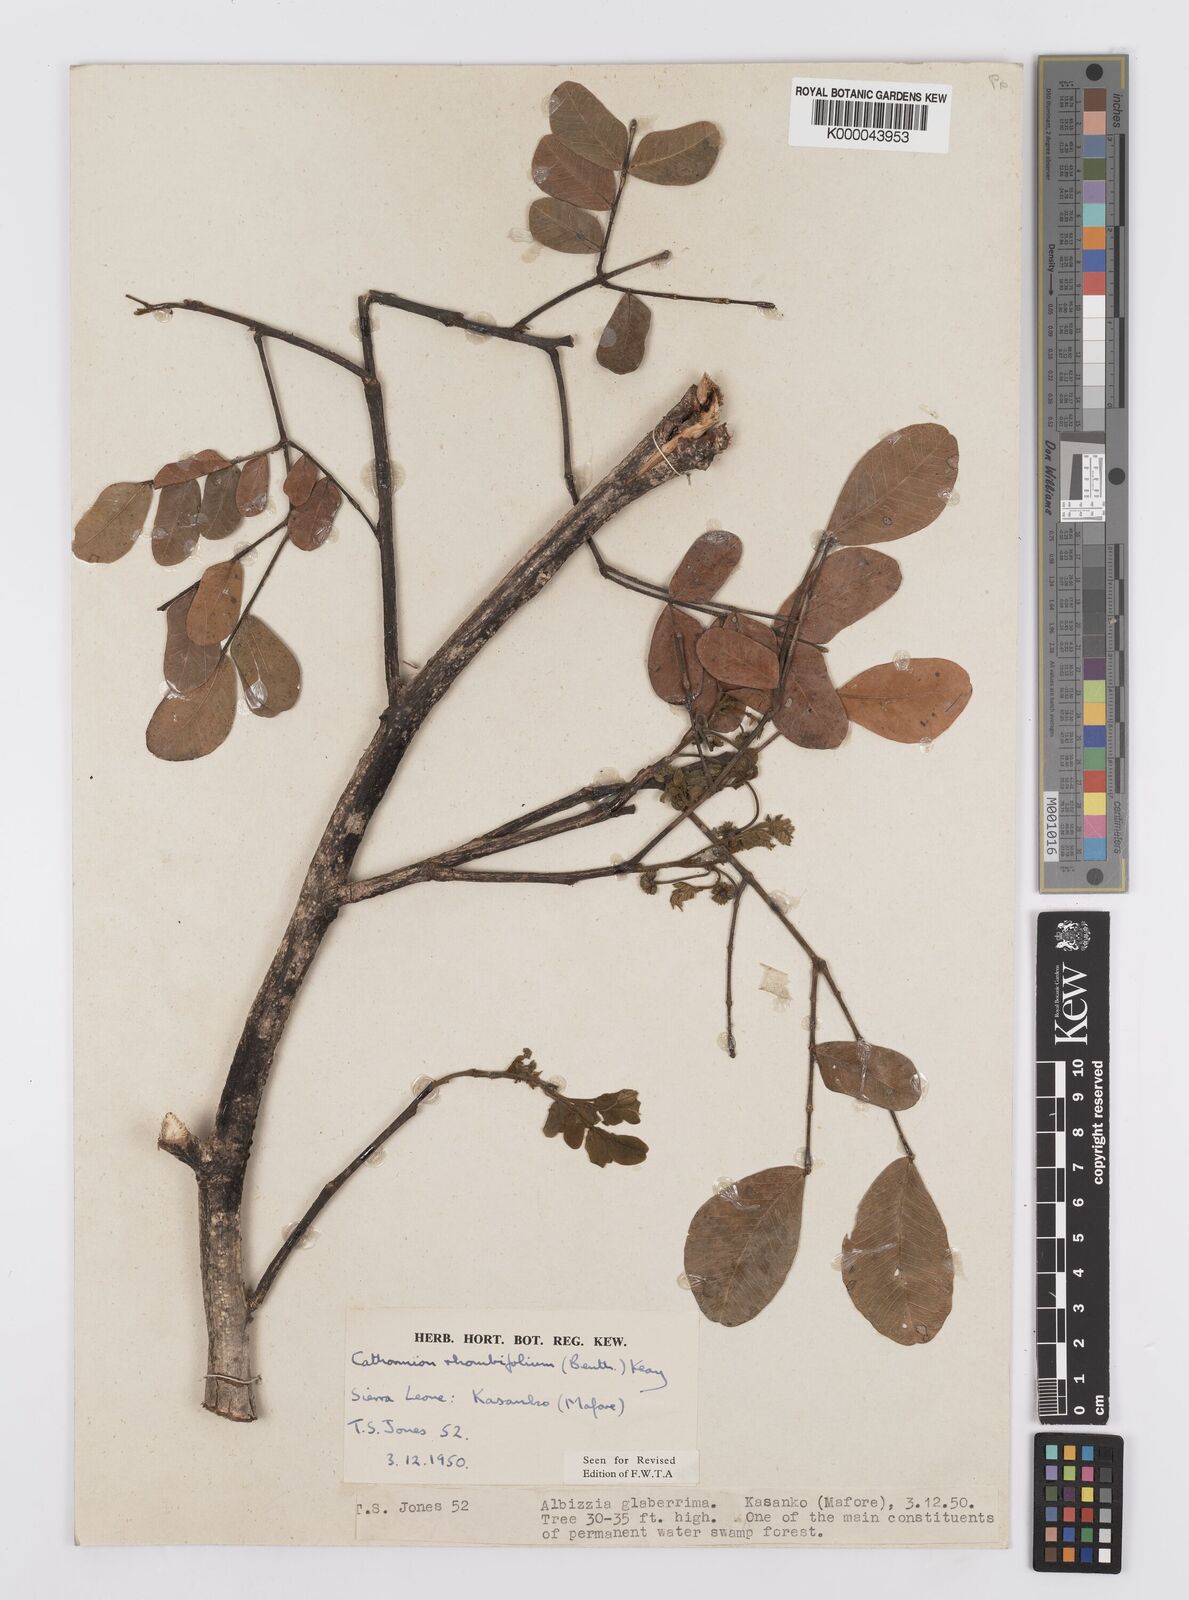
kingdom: Plantae
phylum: Tracheophyta
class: Magnoliopsida
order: Fabales
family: Fabaceae
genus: Albizia
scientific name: Albizia rhombifolia
